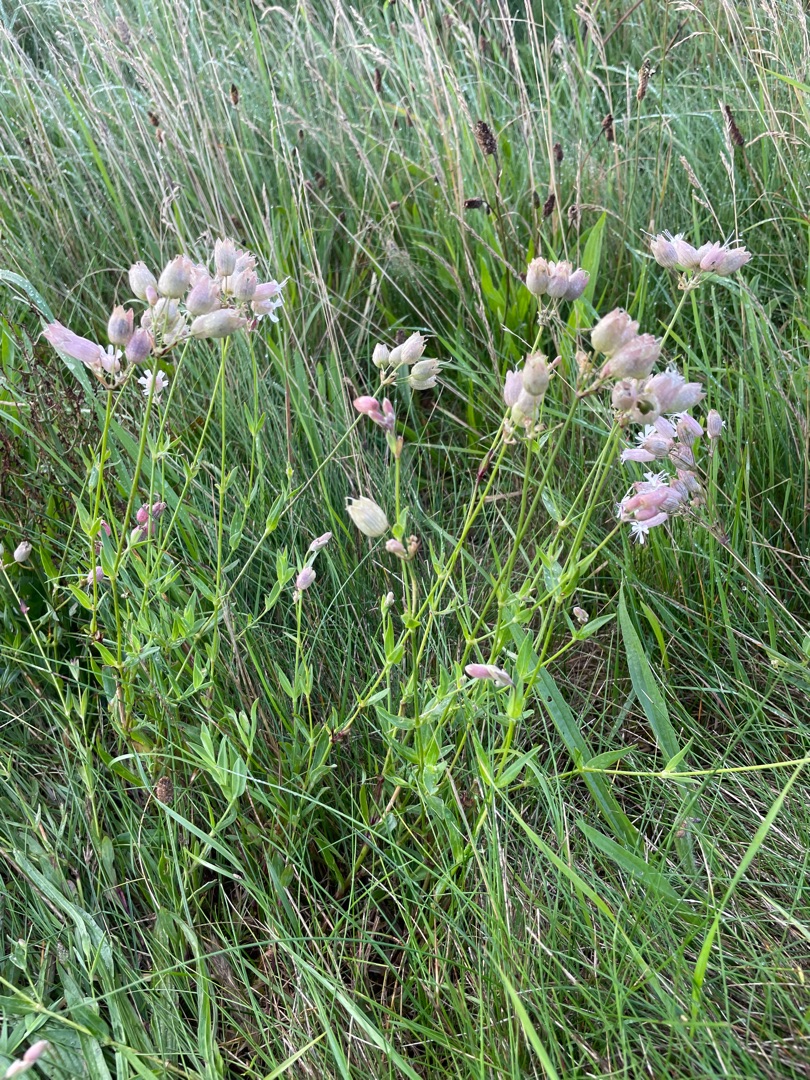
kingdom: Plantae
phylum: Tracheophyta
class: Magnoliopsida
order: Caryophyllales
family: Caryophyllaceae
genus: Silene
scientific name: Silene vulgaris
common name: Blæresmælde
